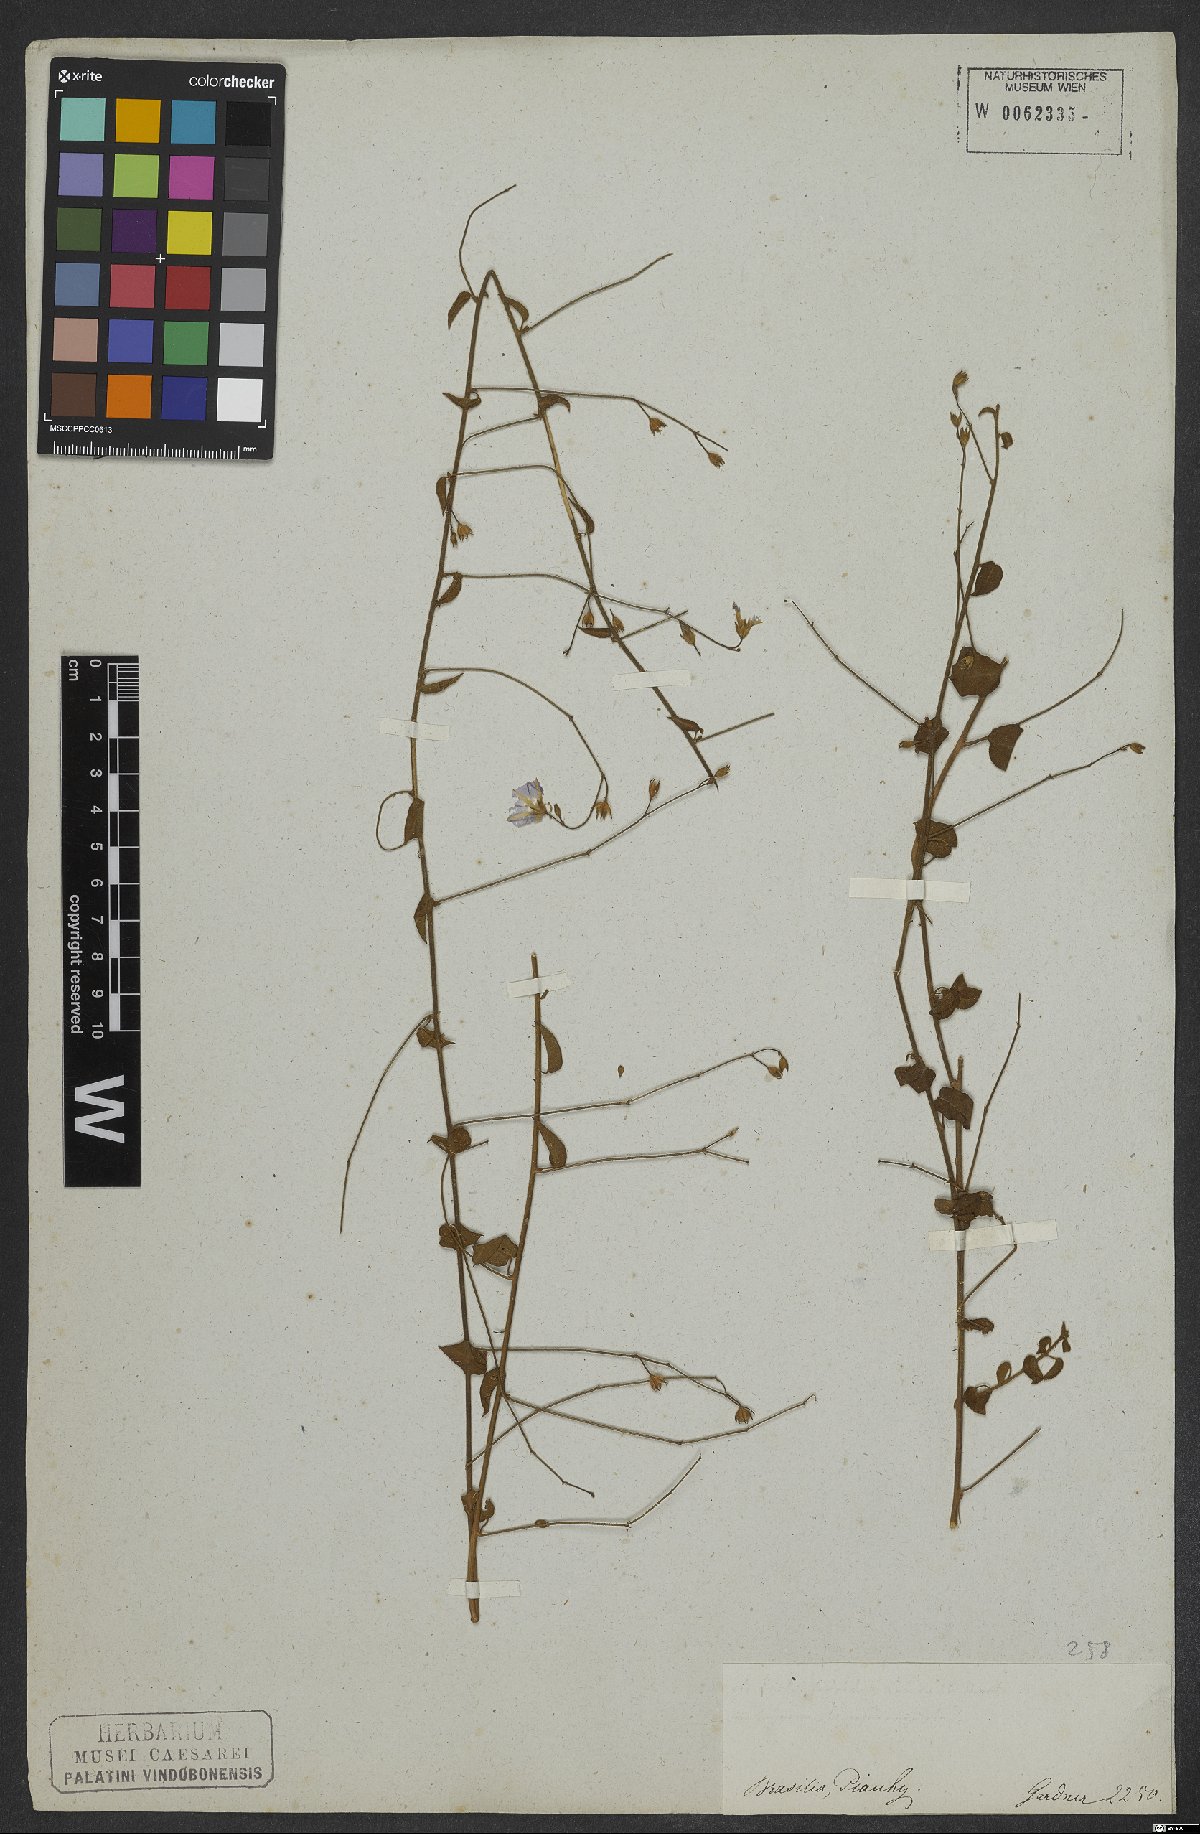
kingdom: Plantae
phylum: Tracheophyta
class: Magnoliopsida
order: Solanales
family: Convolvulaceae
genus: Jacquemontia
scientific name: Jacquemontia evolvuloides
